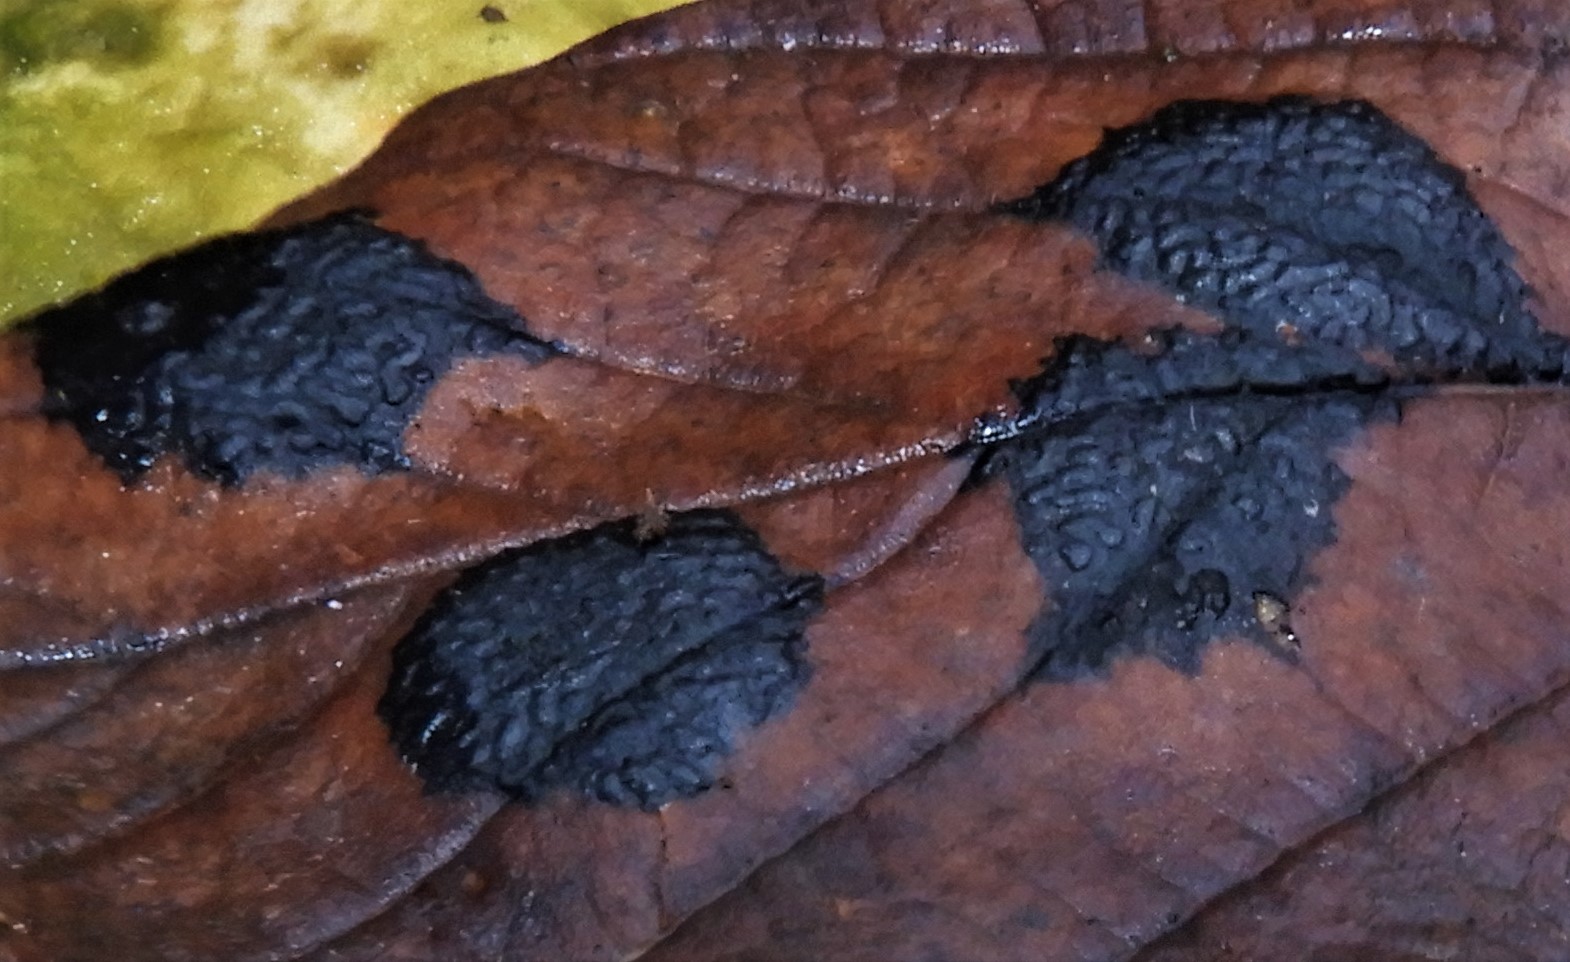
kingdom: Fungi
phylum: Ascomycota
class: Leotiomycetes
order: Rhytismatales
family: Rhytismataceae
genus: Rhytisma
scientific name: Rhytisma acerinum
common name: ahorn-rynkeplet
